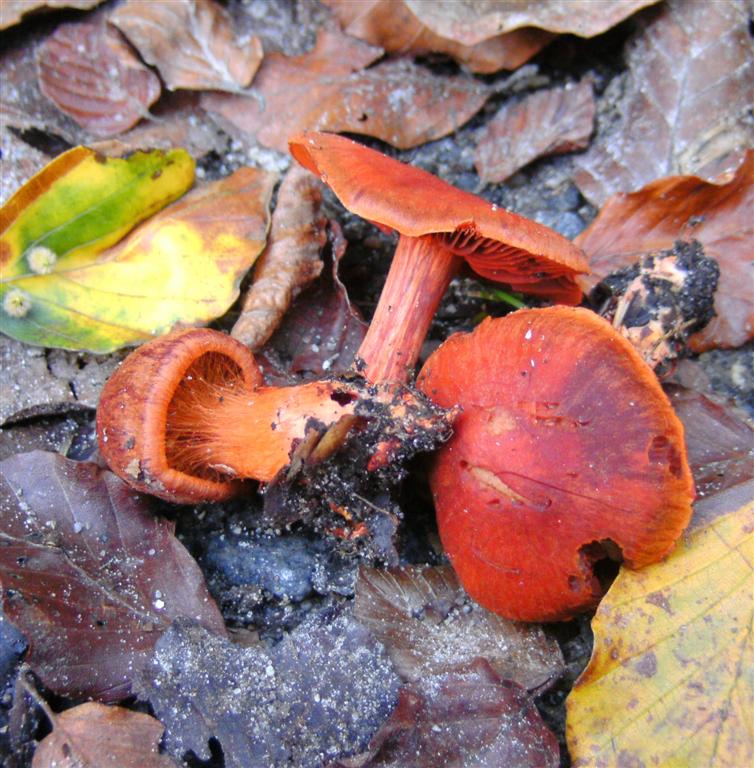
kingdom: Fungi
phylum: Basidiomycota
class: Agaricomycetes
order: Agaricales
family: Cortinariaceae
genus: Cortinarius
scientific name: Cortinarius cinnabarinus
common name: cinnober-slørhat
